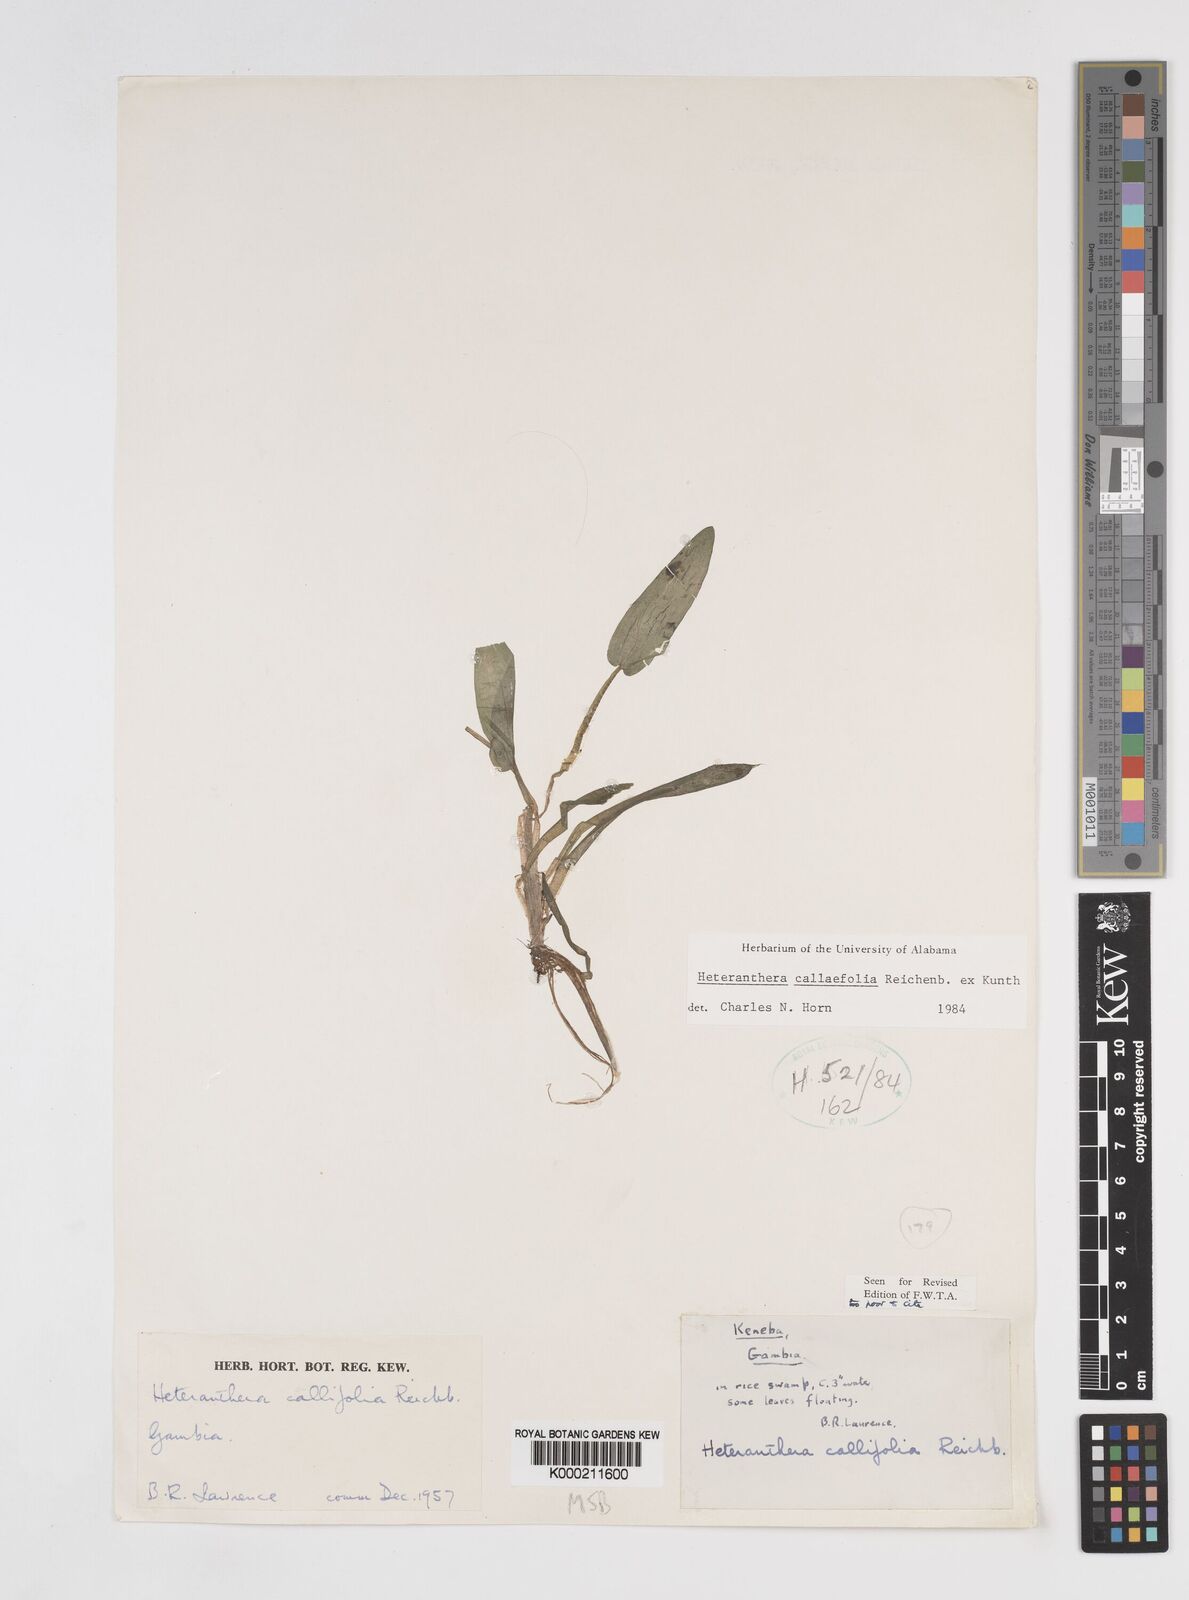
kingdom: Plantae
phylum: Tracheophyta
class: Liliopsida
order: Commelinales
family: Pontederiaceae
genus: Heteranthera
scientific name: Heteranthera callifolia
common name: Mud plantain
